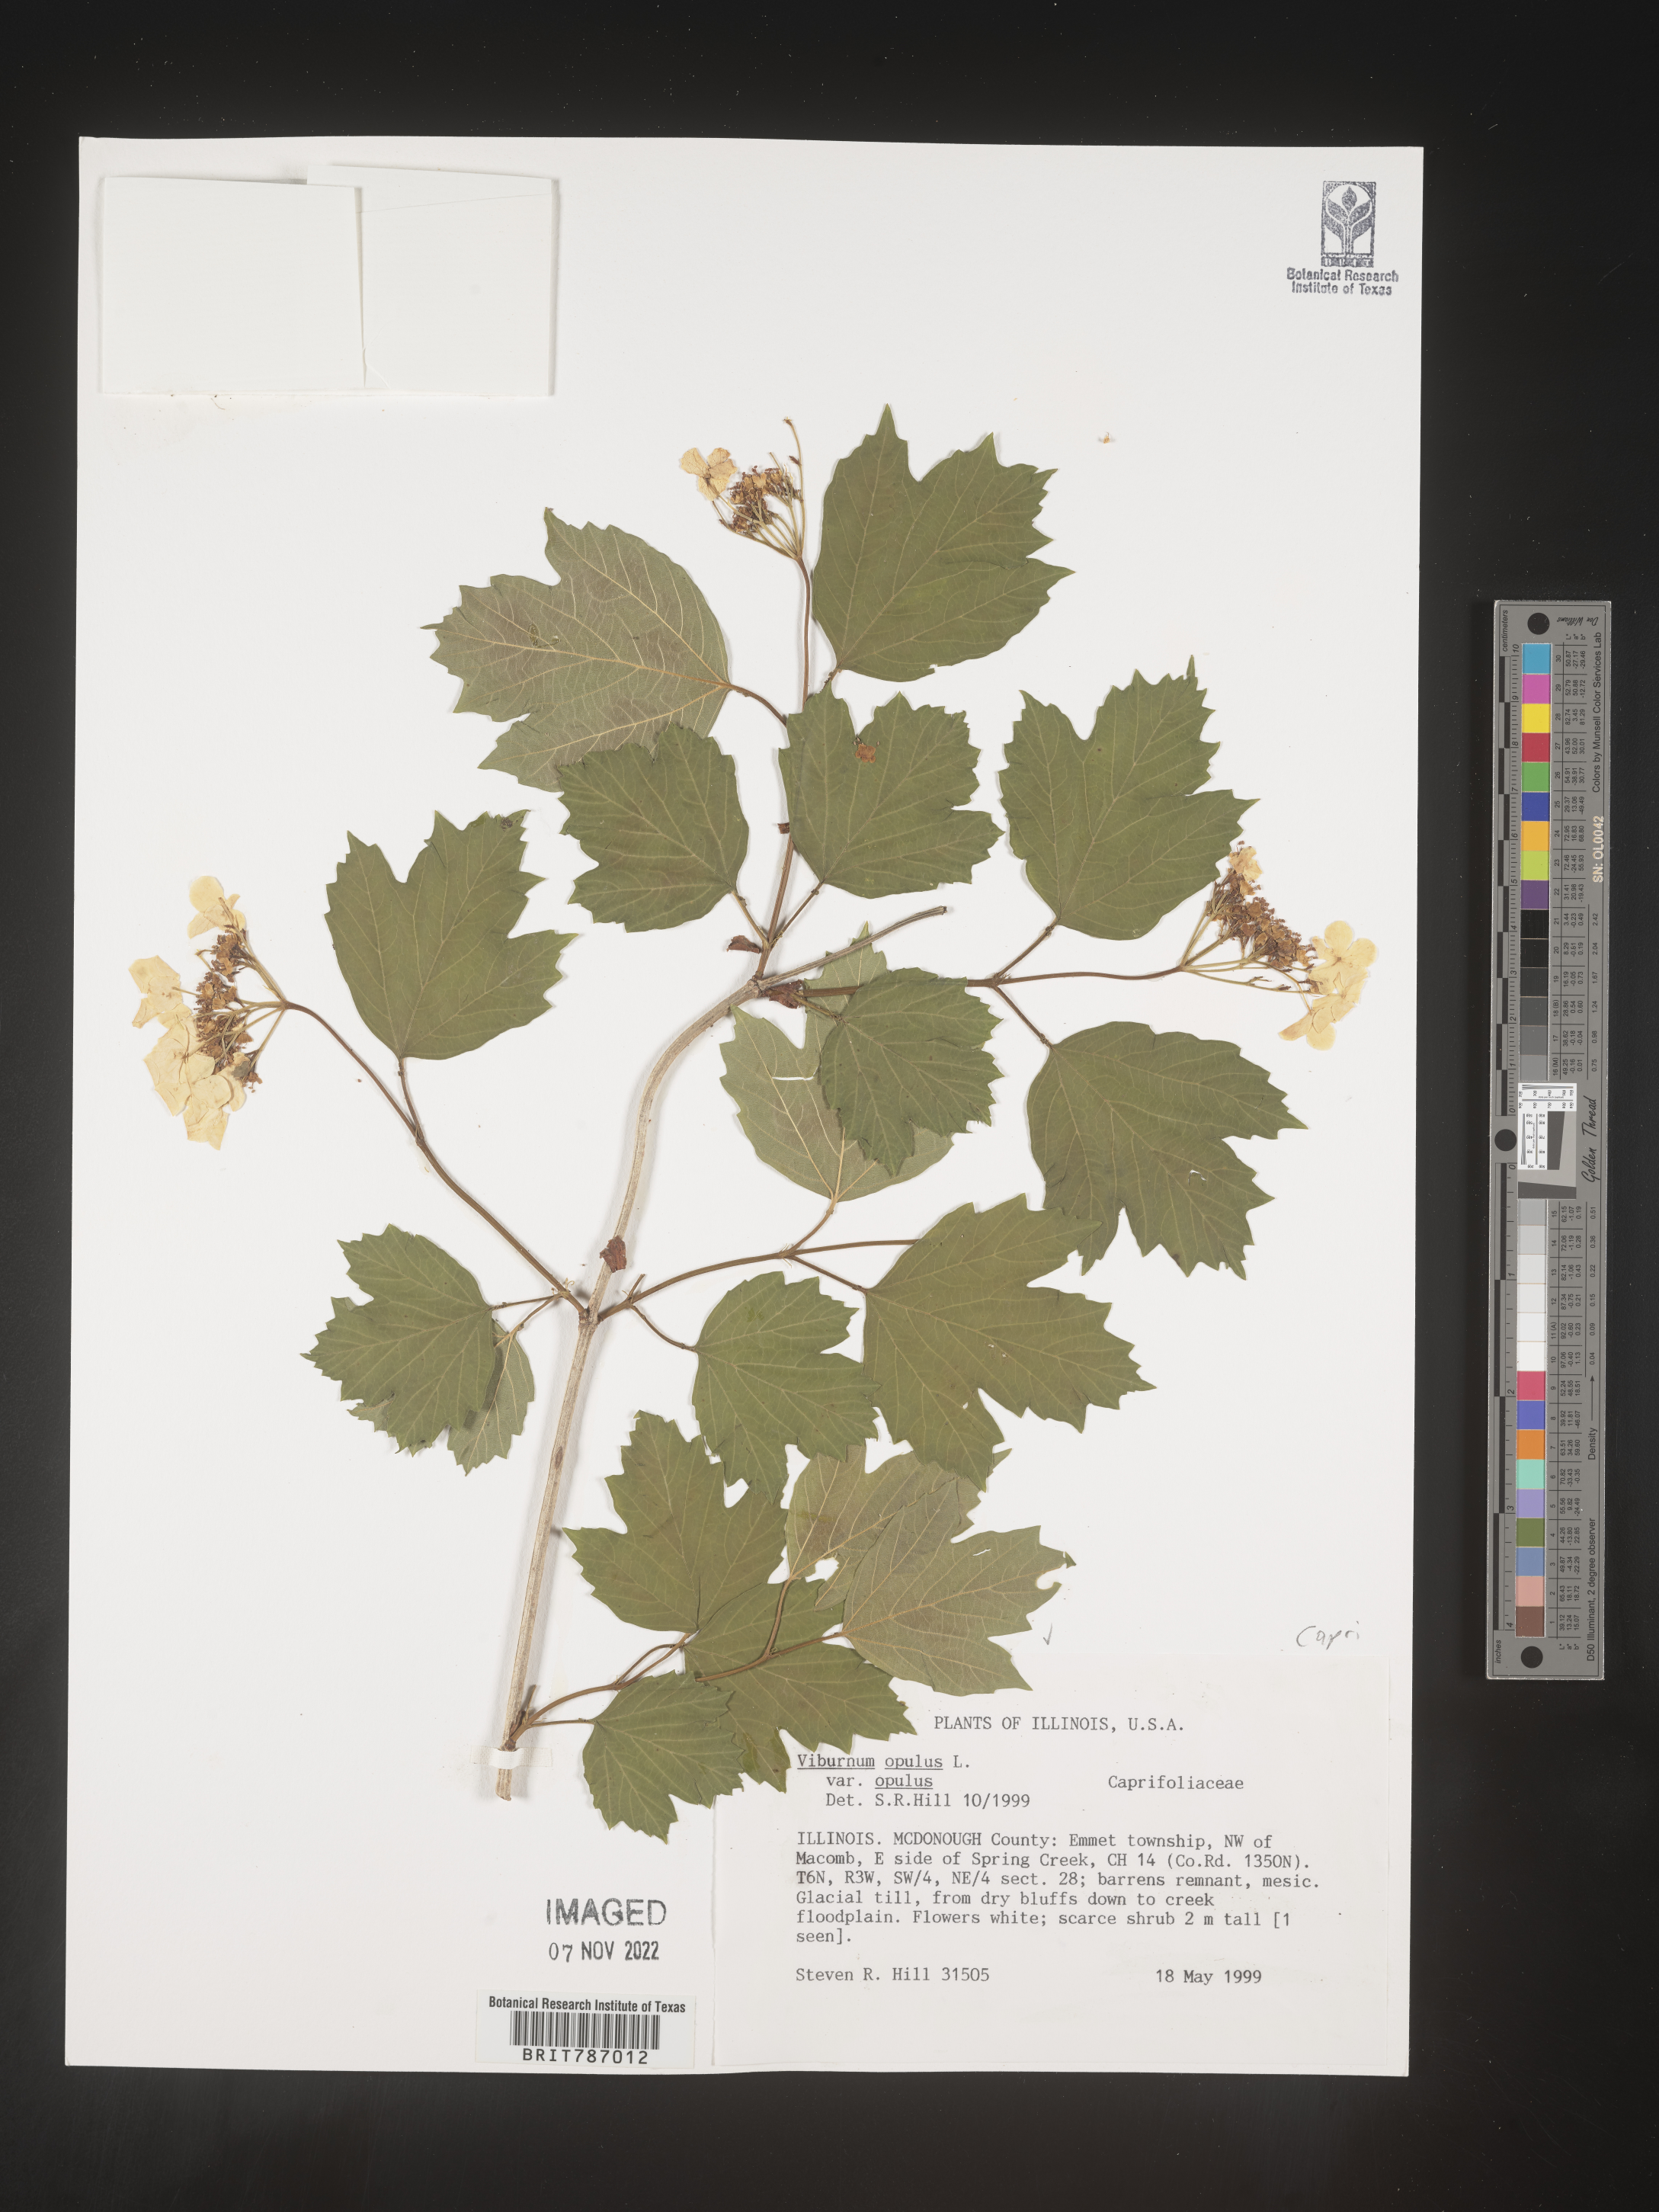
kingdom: Plantae
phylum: Tracheophyta
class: Magnoliopsida
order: Dipsacales
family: Viburnaceae
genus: Viburnum
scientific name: Viburnum opulus
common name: Guelder-rose
